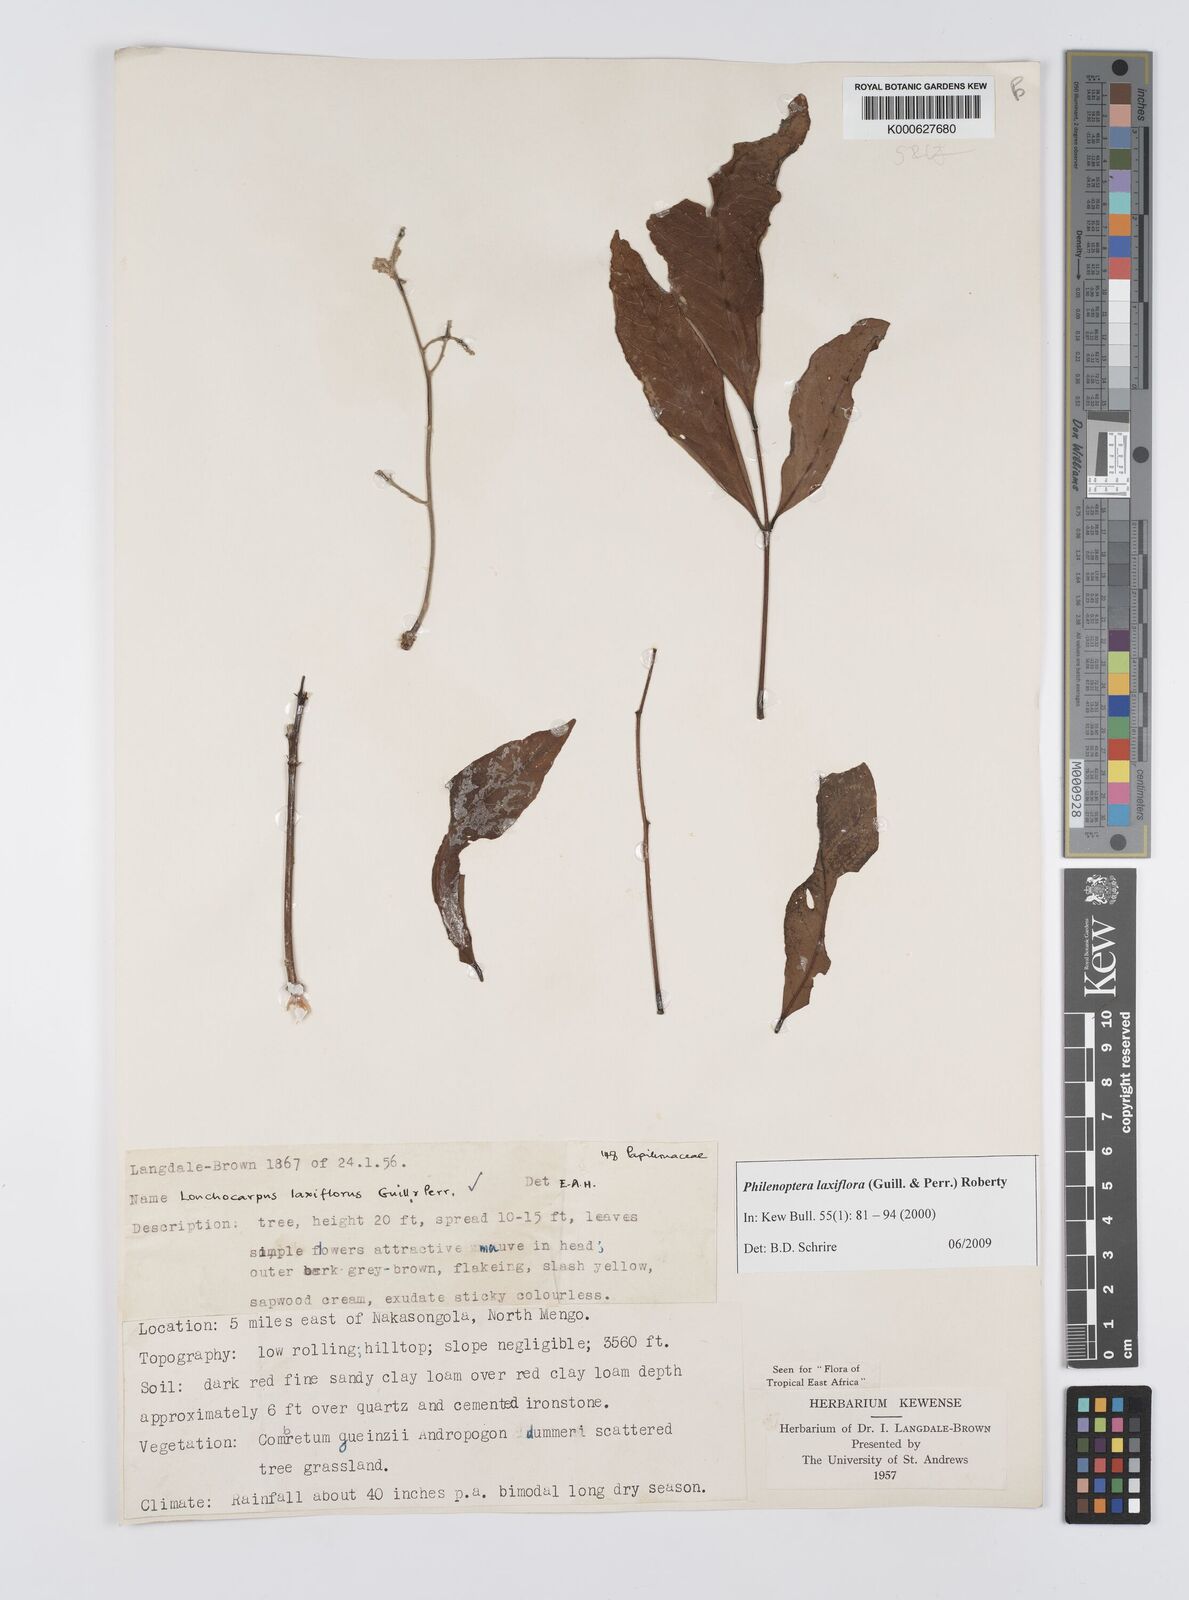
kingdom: Plantae
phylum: Tracheophyta
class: Magnoliopsida
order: Fabales
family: Fabaceae
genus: Philenoptera
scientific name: Philenoptera laxiflora
